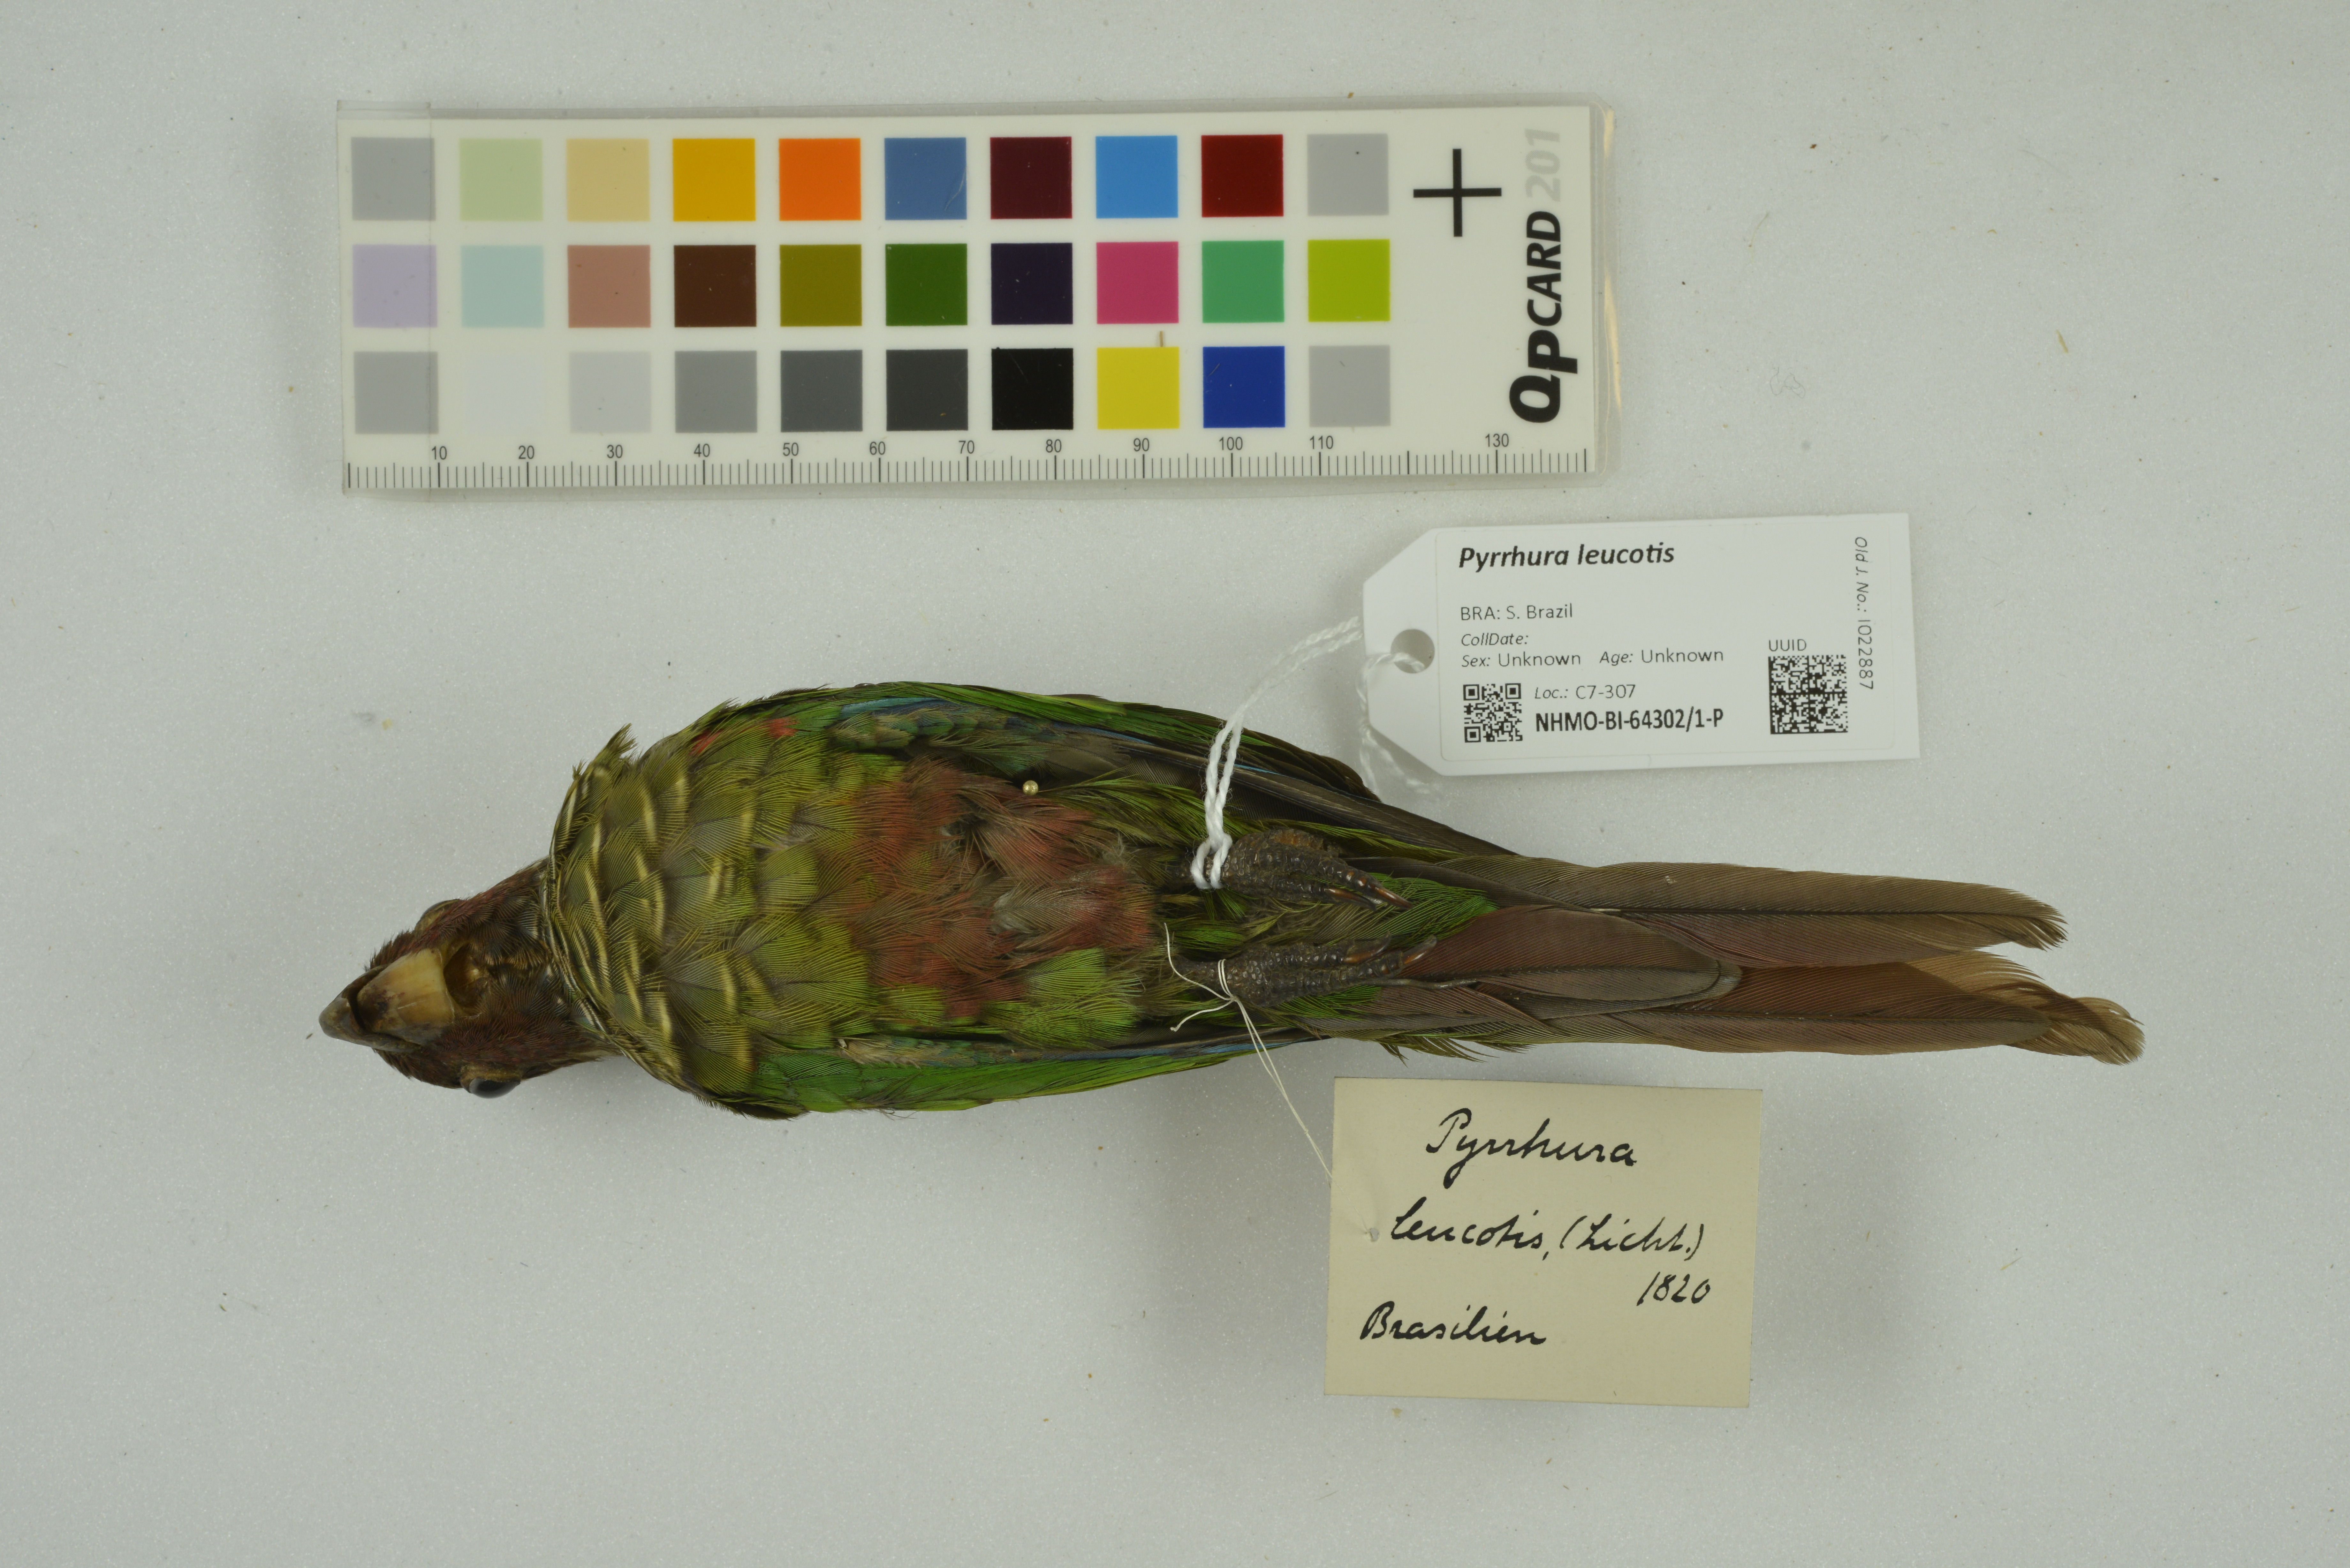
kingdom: Animalia
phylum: Chordata
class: Aves
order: Psittaciformes
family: Psittacidae
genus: Pyrrhura
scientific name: Pyrrhura leucotis
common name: White-eared parakeet
